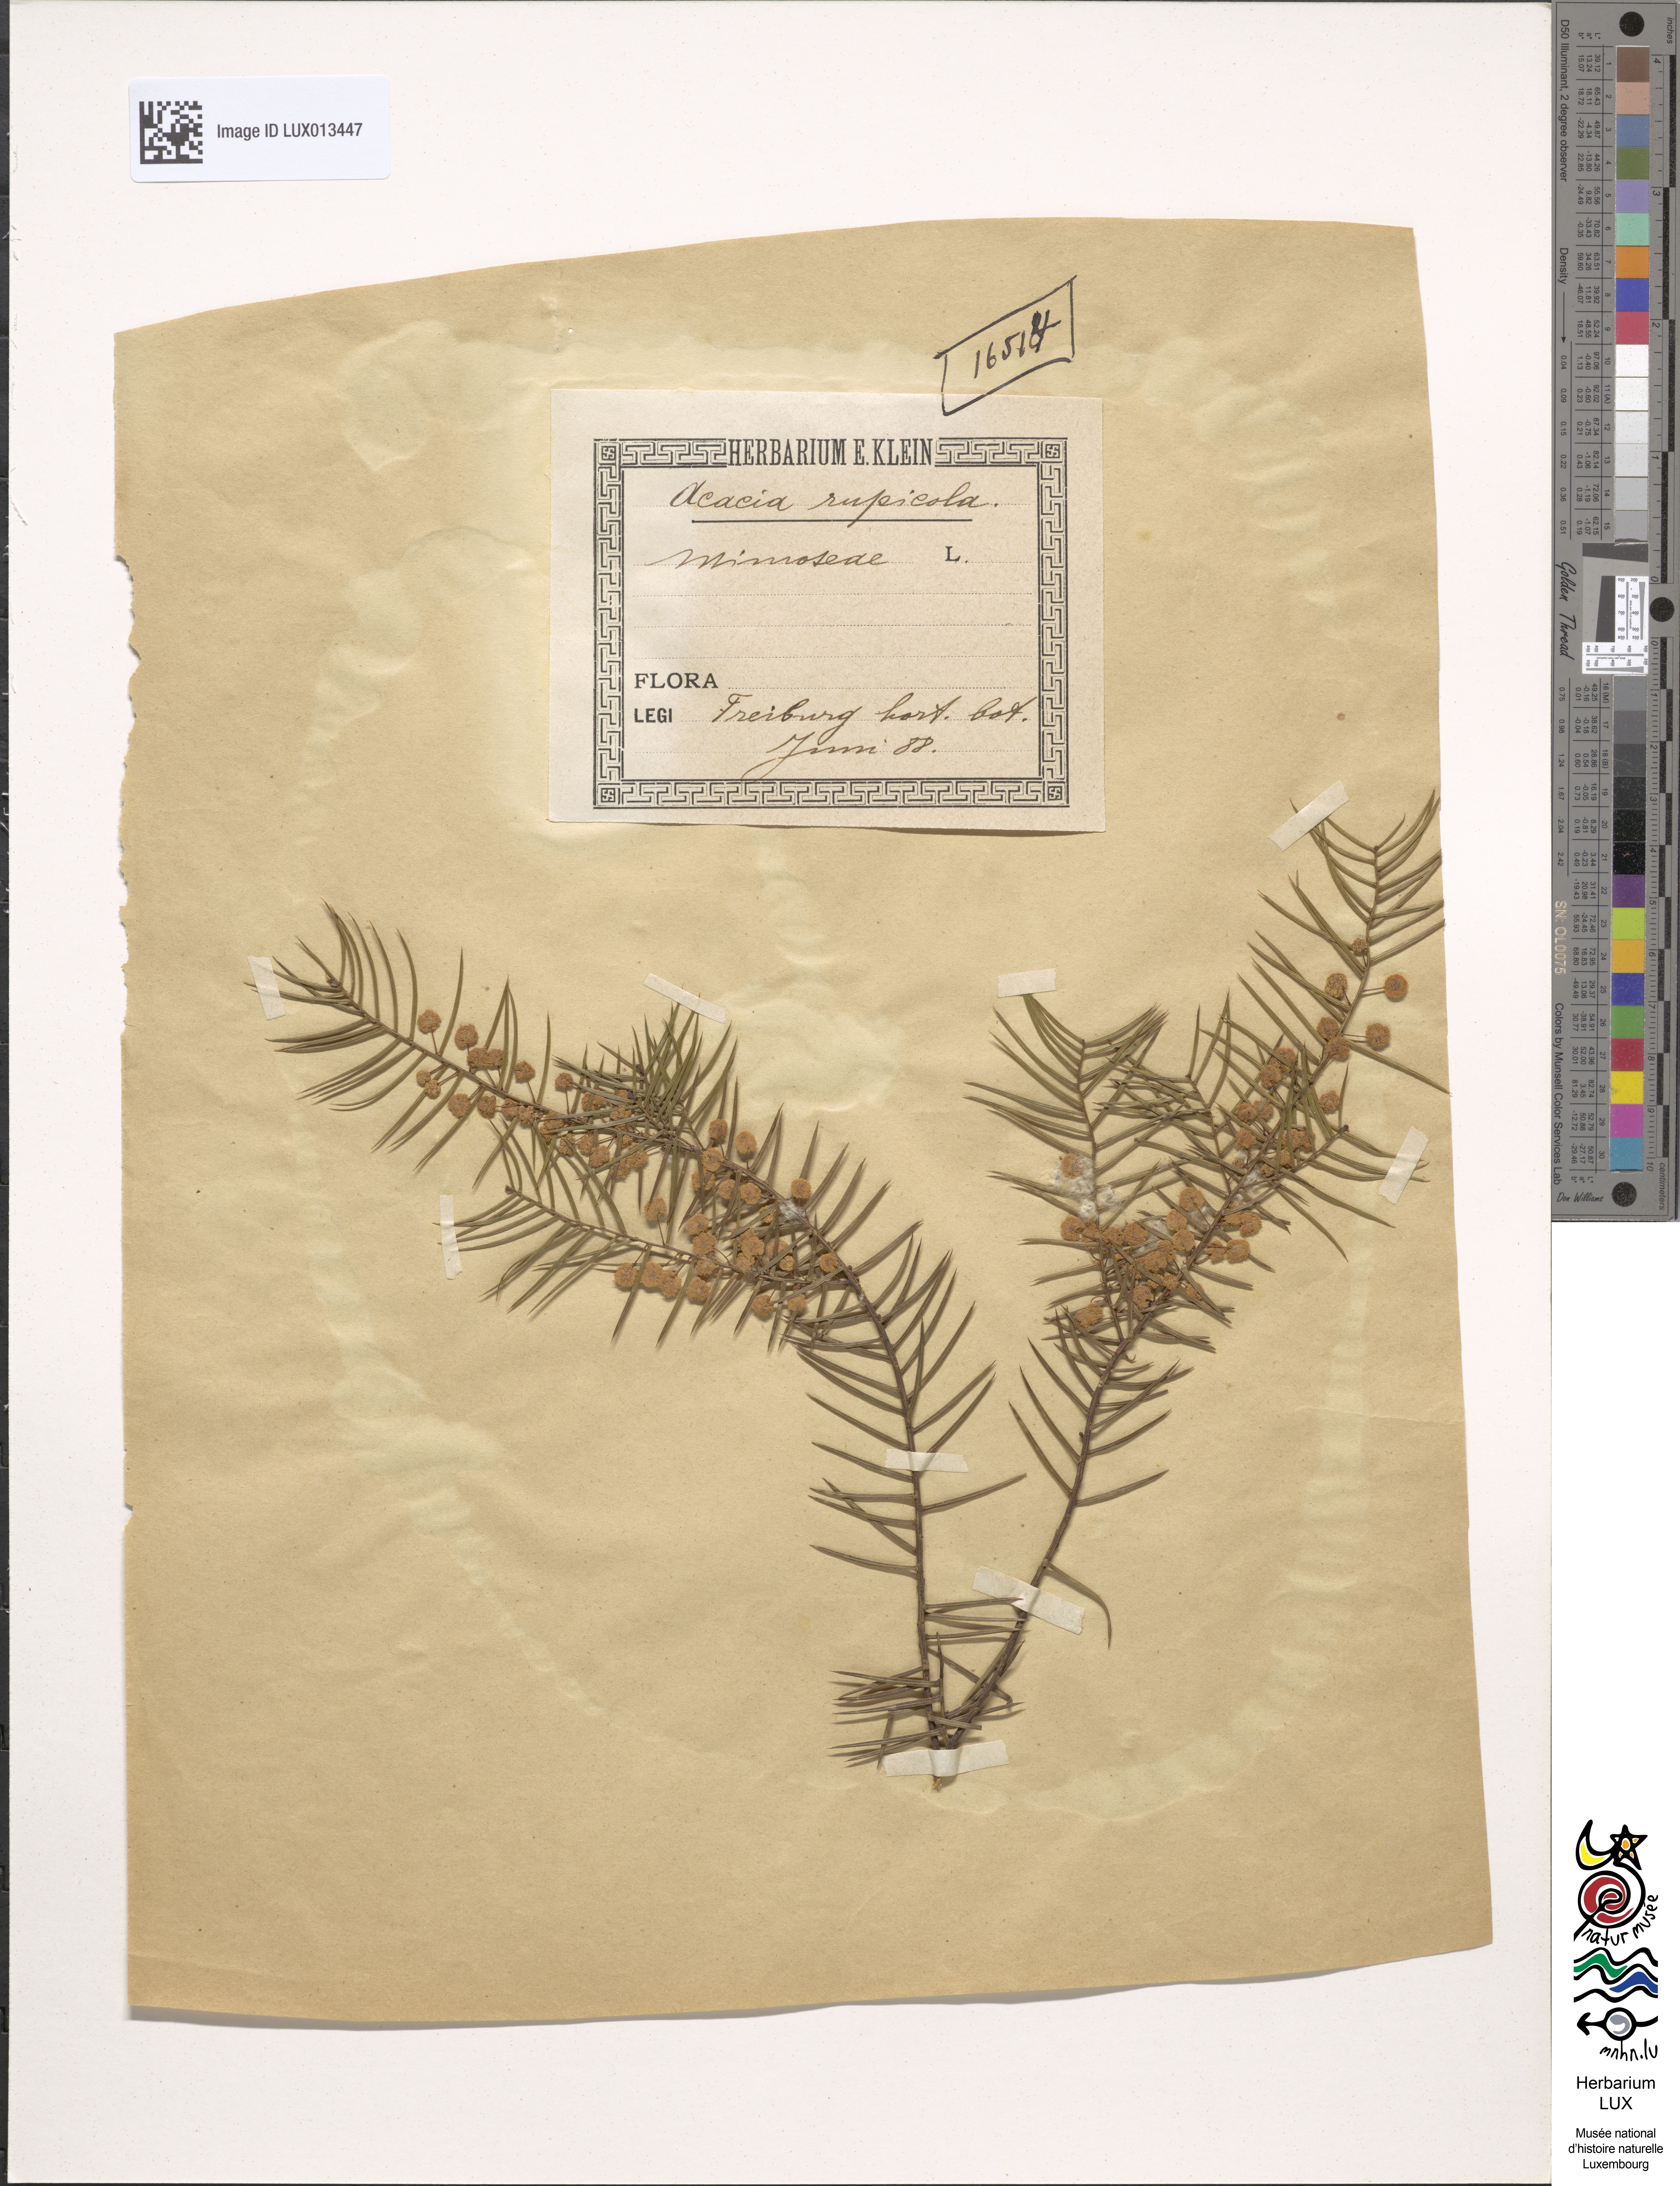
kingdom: Plantae
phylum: Tracheophyta
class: Magnoliopsida
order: Fabales
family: Fabaceae
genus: Acacia
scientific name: Acacia rupicola
